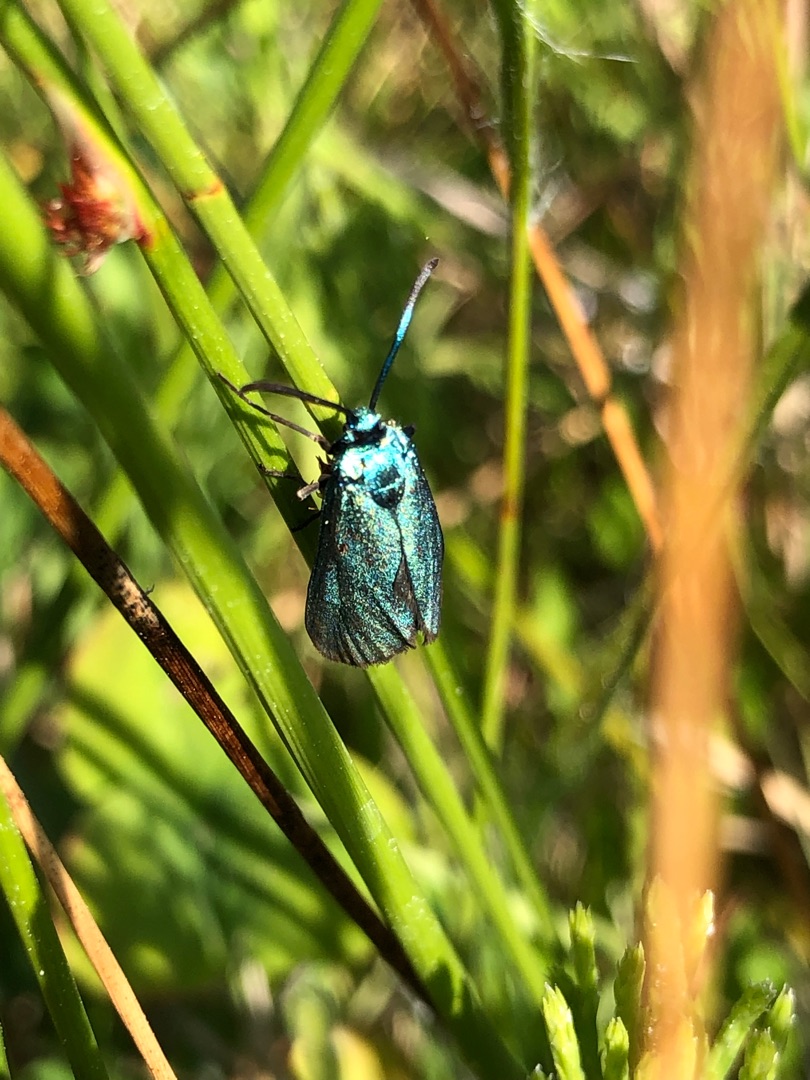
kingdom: Animalia
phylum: Arthropoda
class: Insecta
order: Lepidoptera
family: Zygaenidae
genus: Adscita
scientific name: Adscita statices
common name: Metalvinge
